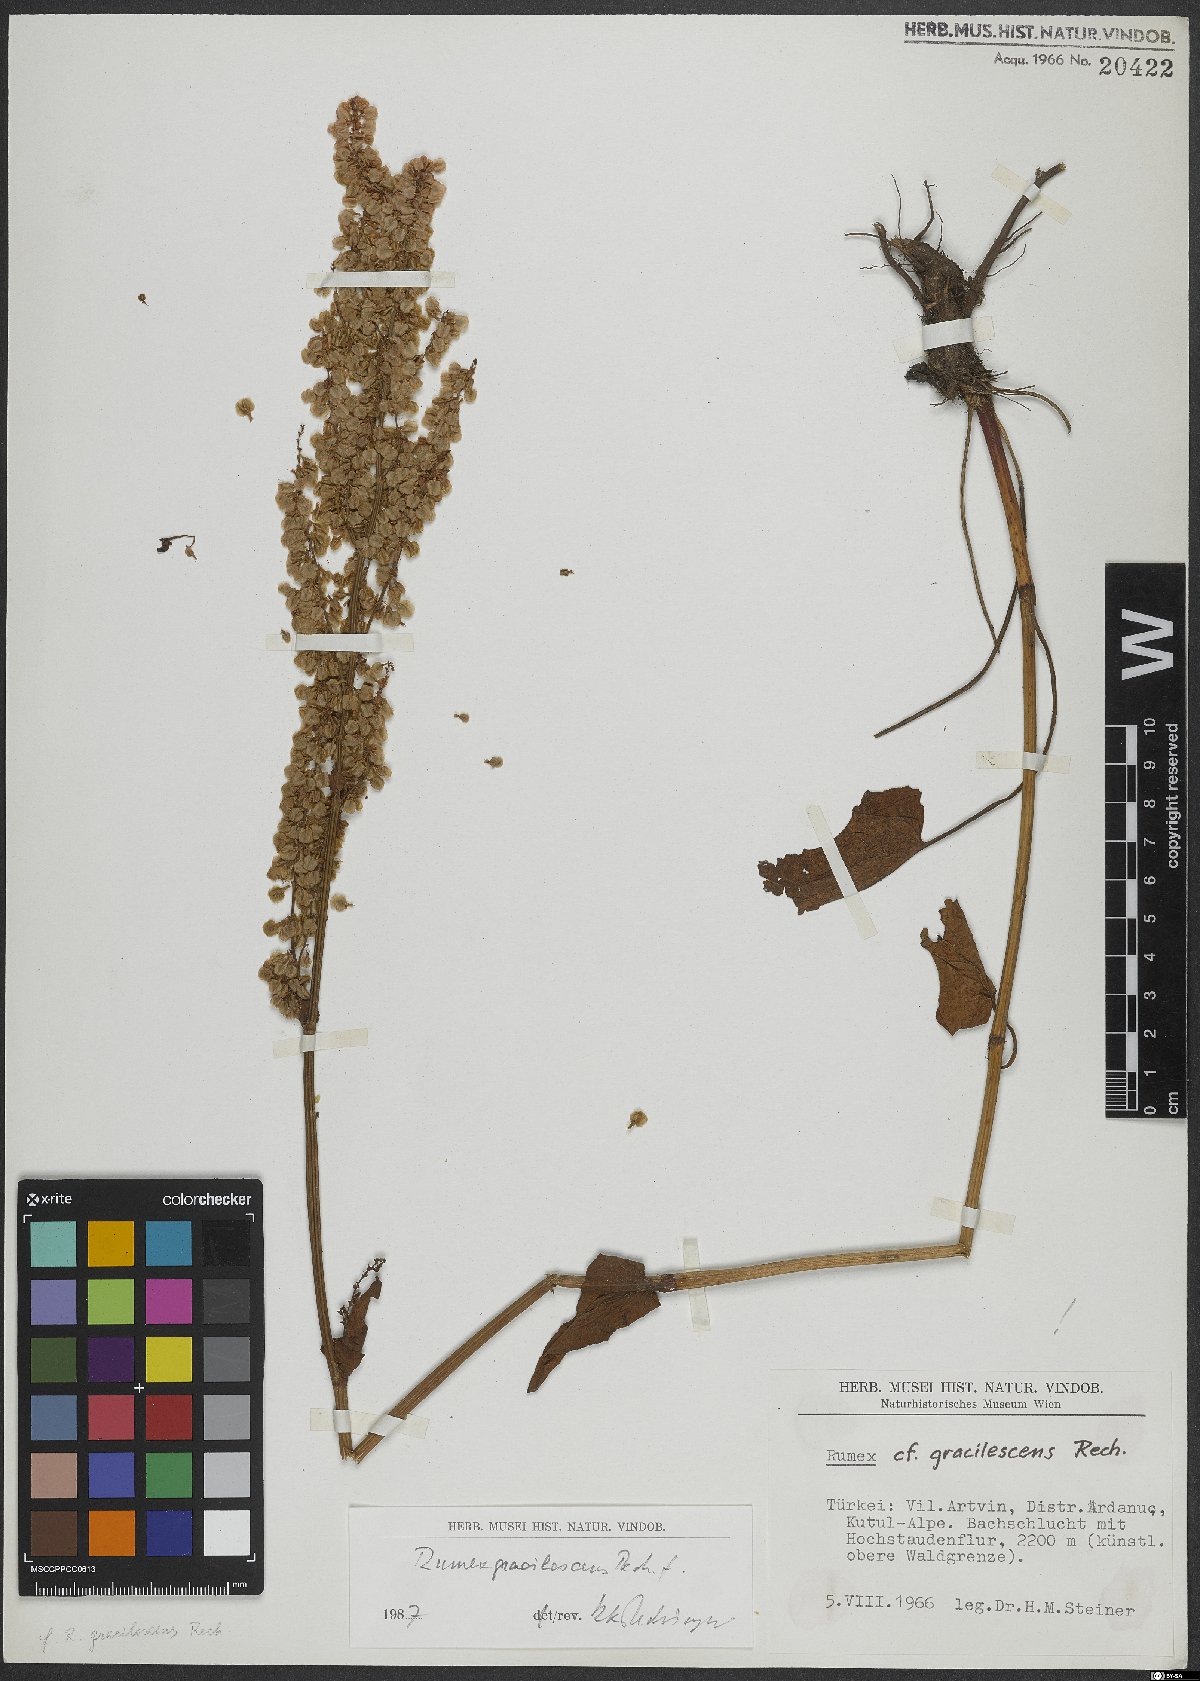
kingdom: Plantae
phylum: Tracheophyta
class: Magnoliopsida
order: Caryophyllales
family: Polygonaceae
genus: Rumex
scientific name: Rumex gracilescens
